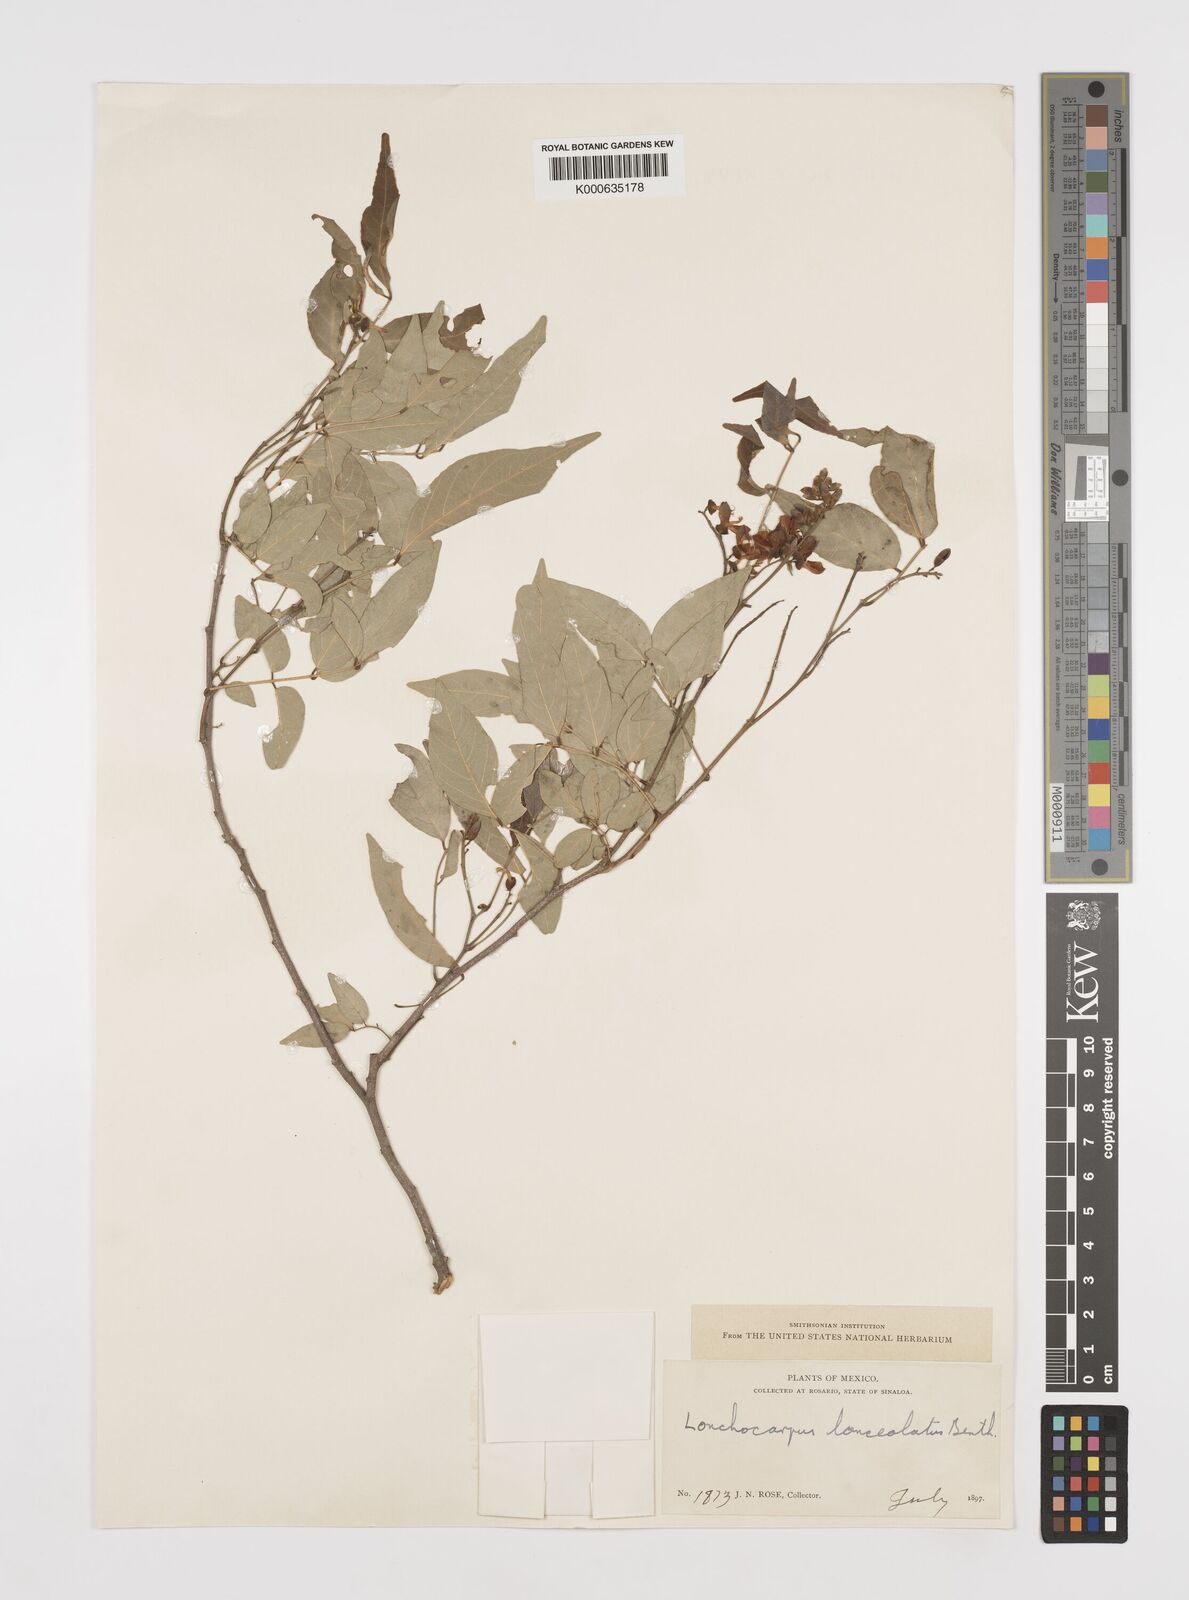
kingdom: Plantae
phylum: Tracheophyta
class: Magnoliopsida
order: Fabales
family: Fabaceae
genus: Lonchocarpus
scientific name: Lonchocarpus lanceolatus
